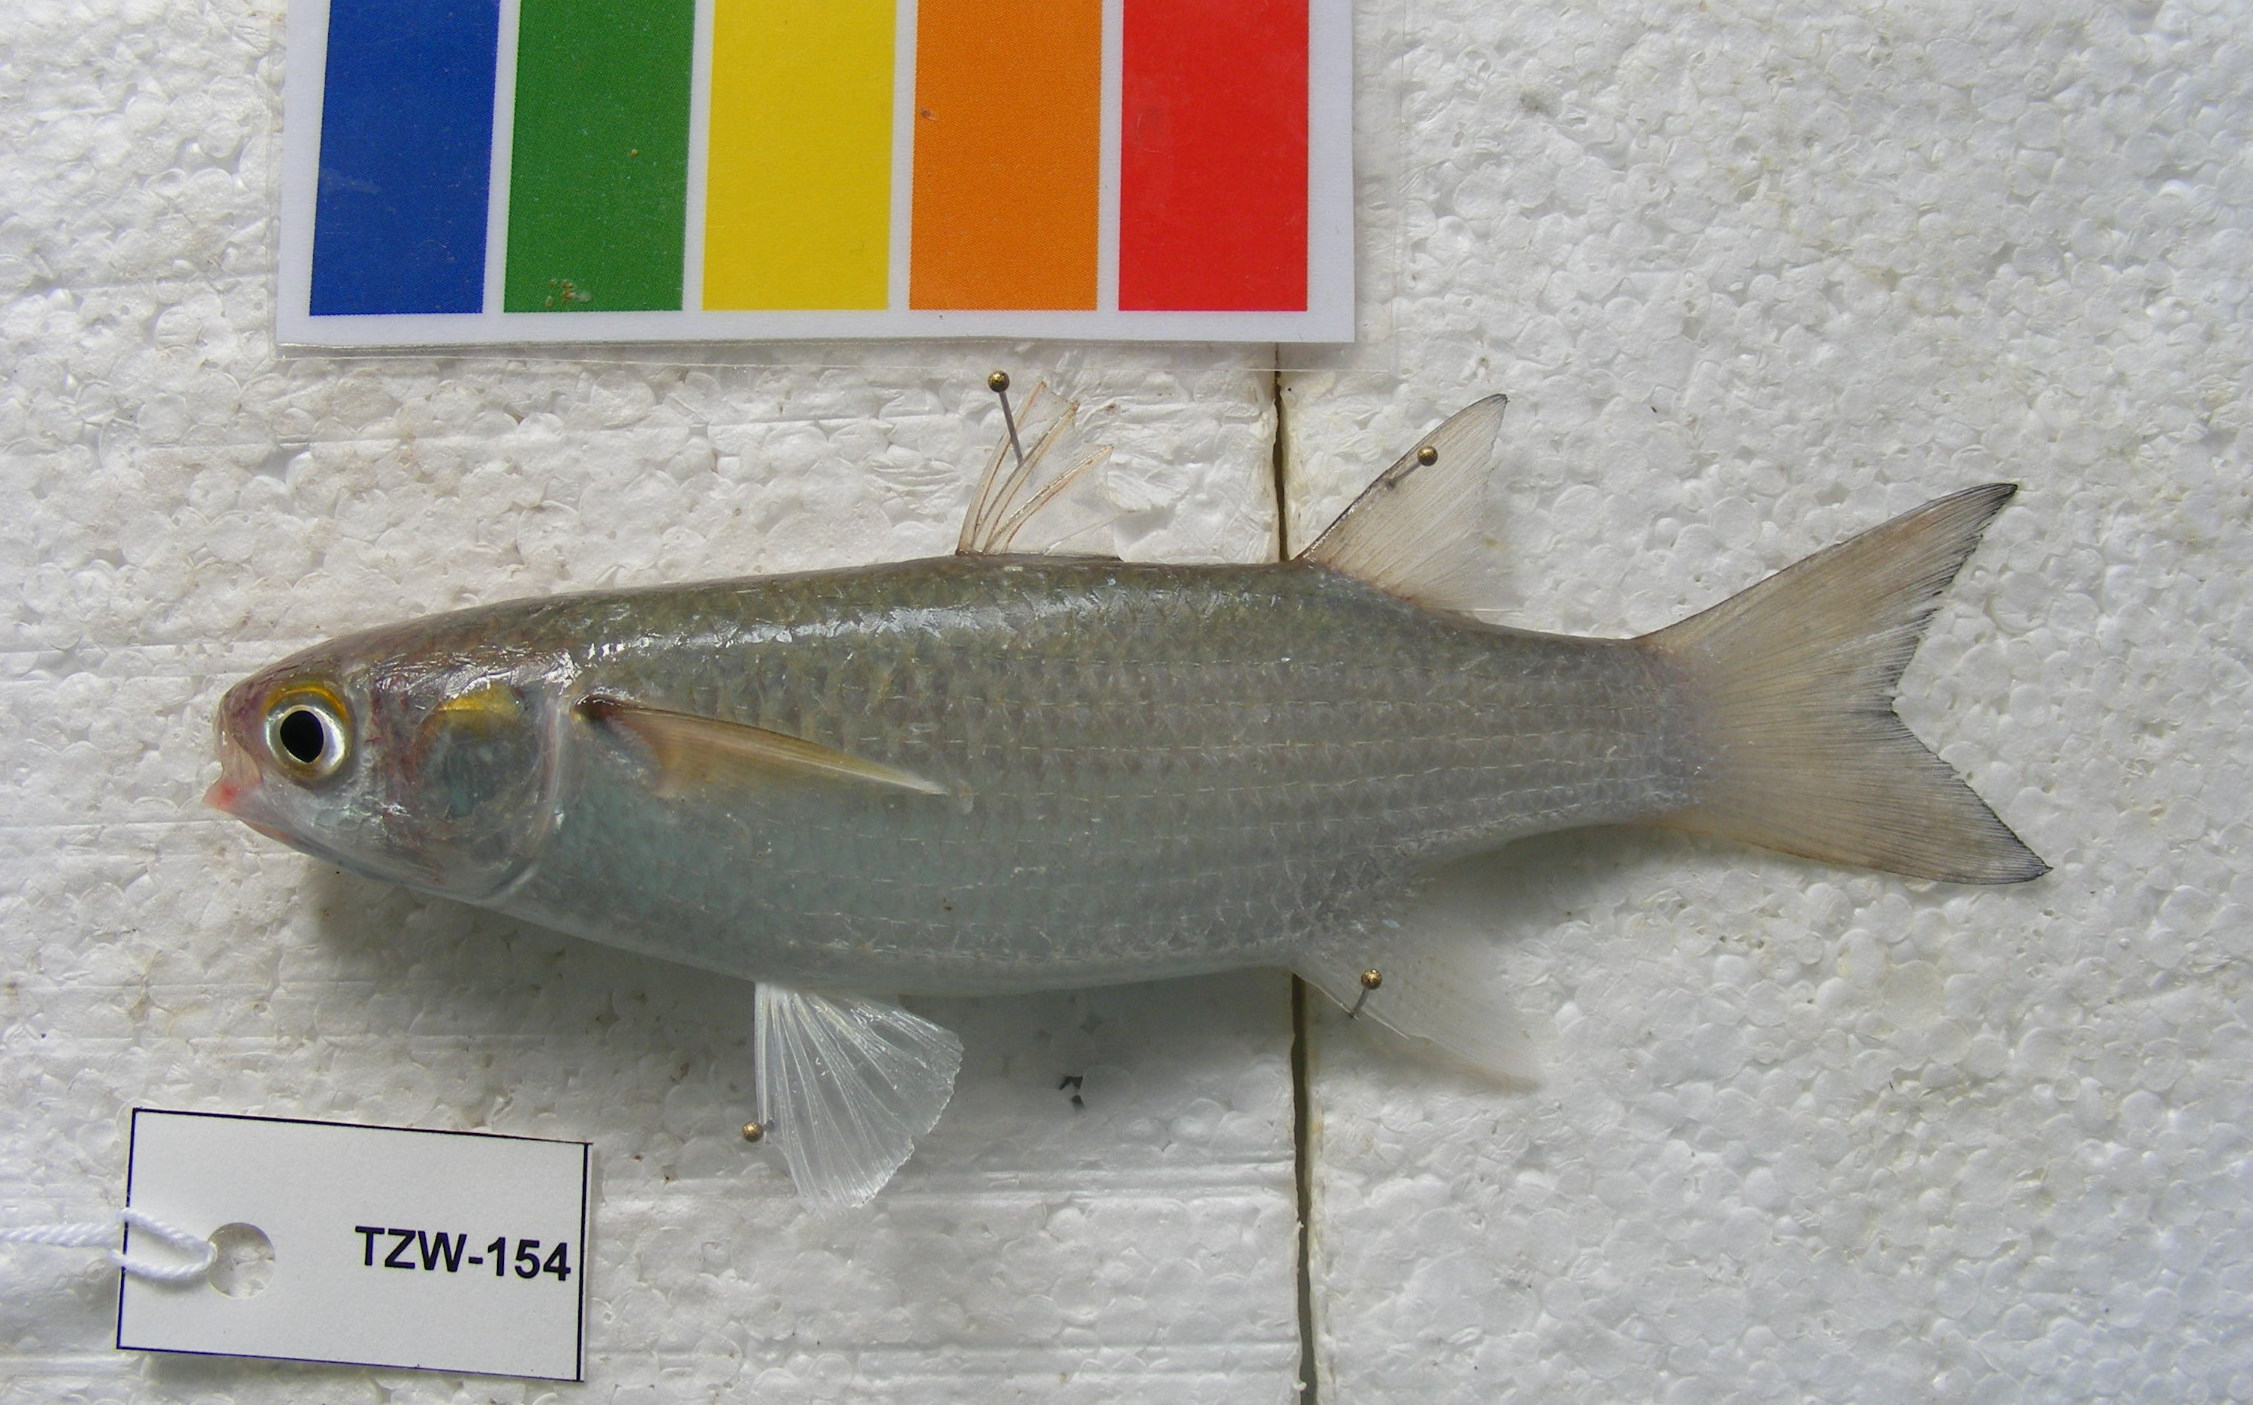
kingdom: Animalia
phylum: Chordata
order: Mugiliformes
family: Mugilidae
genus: Valamugil
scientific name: Valamugil
